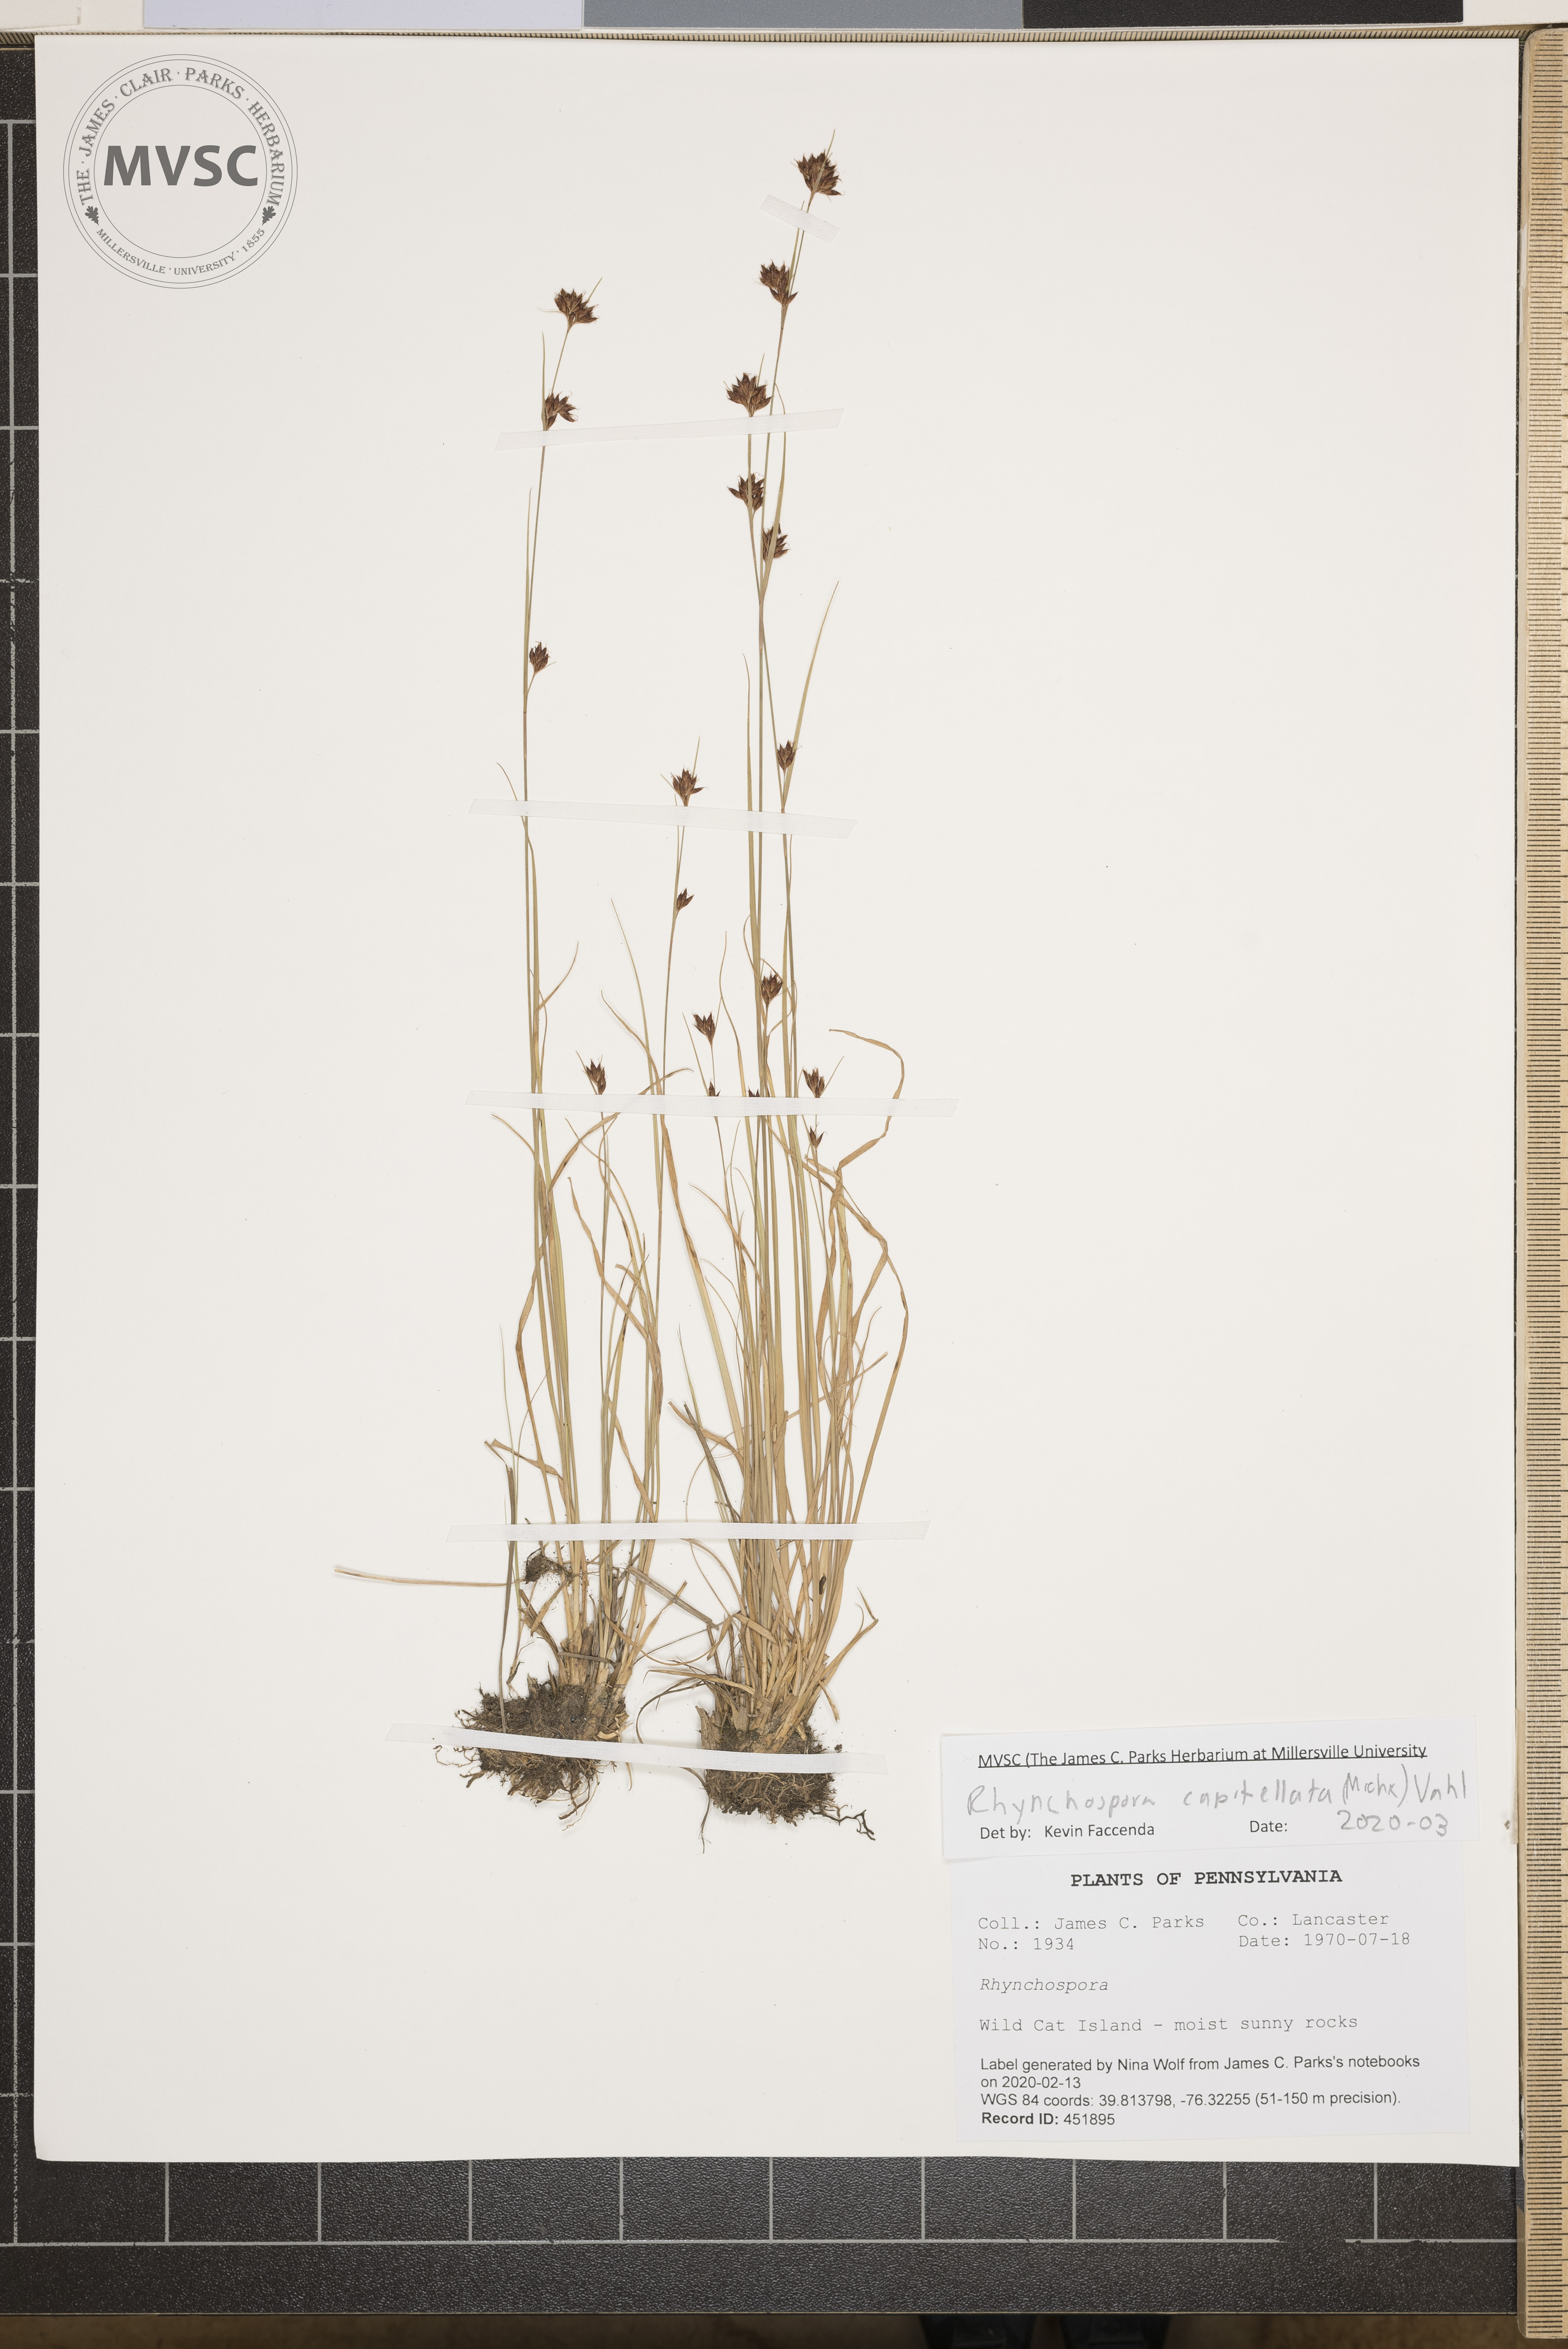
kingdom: Plantae
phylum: Tracheophyta
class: Liliopsida
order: Poales
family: Cyperaceae
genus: Rhynchospora
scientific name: Rhynchospora capitellata
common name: Brownish beaksedge
